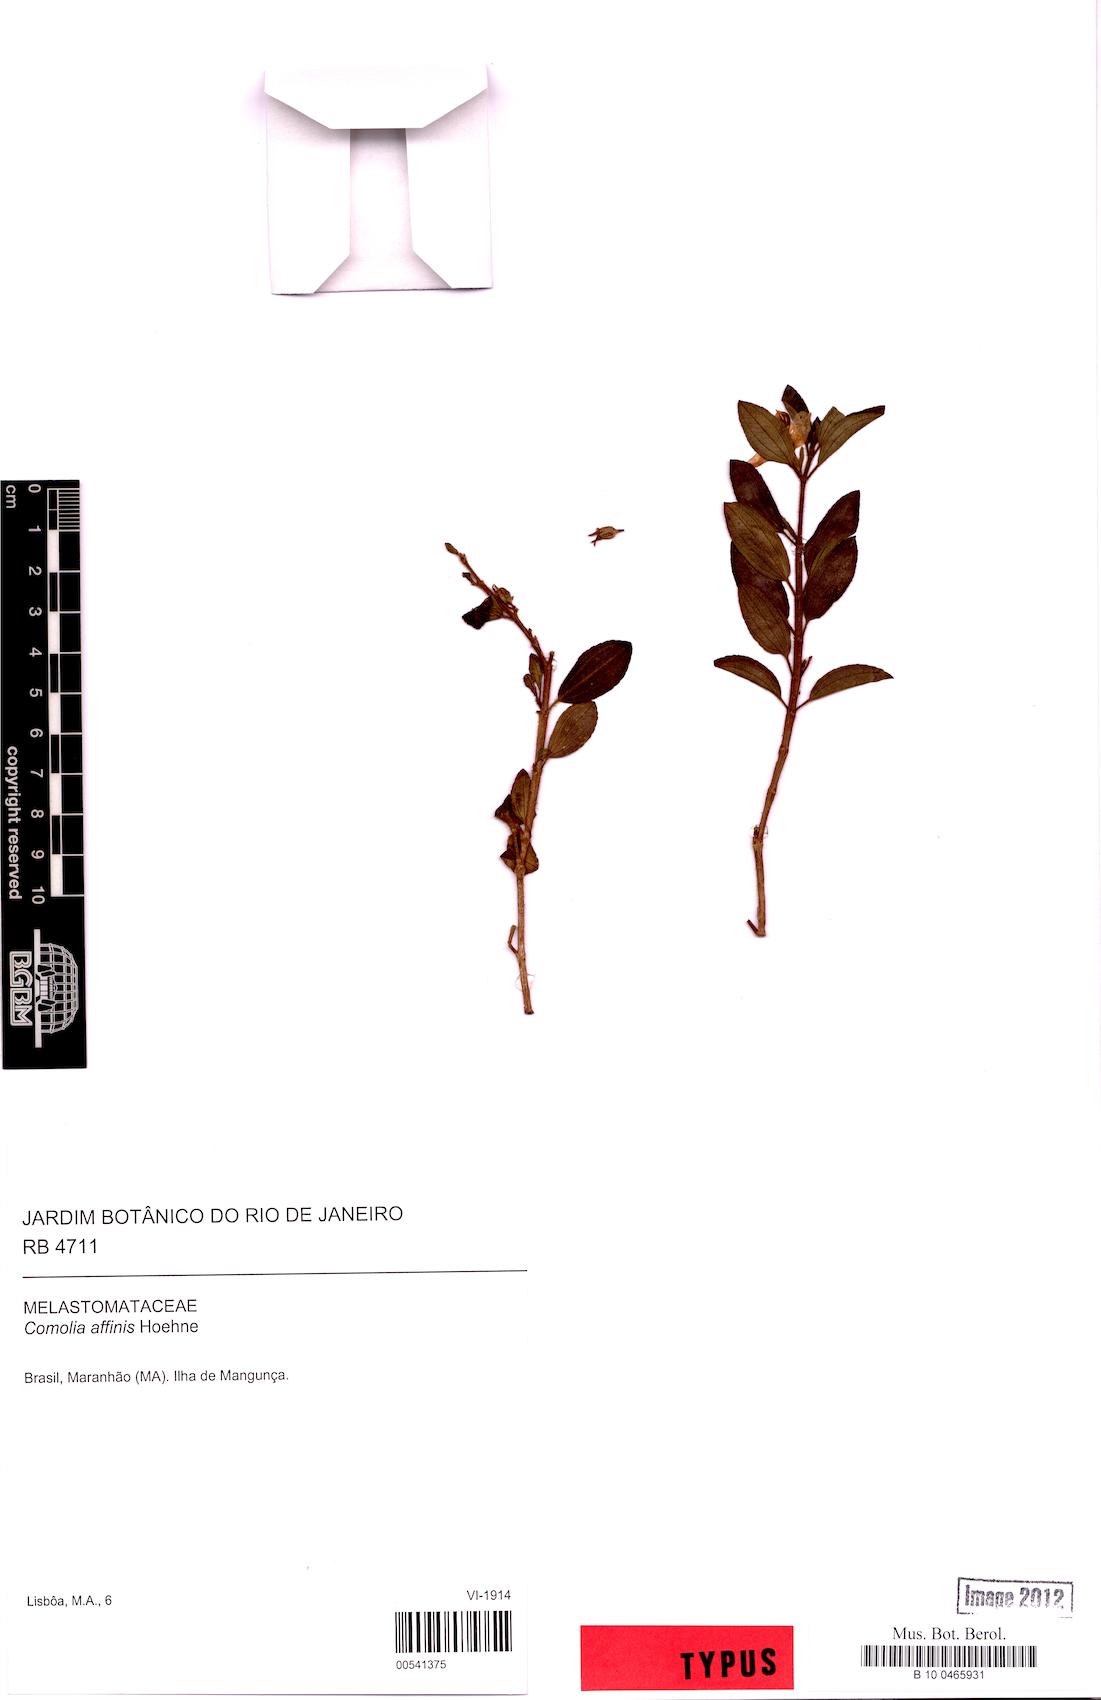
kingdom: Plantae
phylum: Tracheophyta
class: Magnoliopsida
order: Myrtales
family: Melastomataceae
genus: Comolia
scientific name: Comolia villosa
